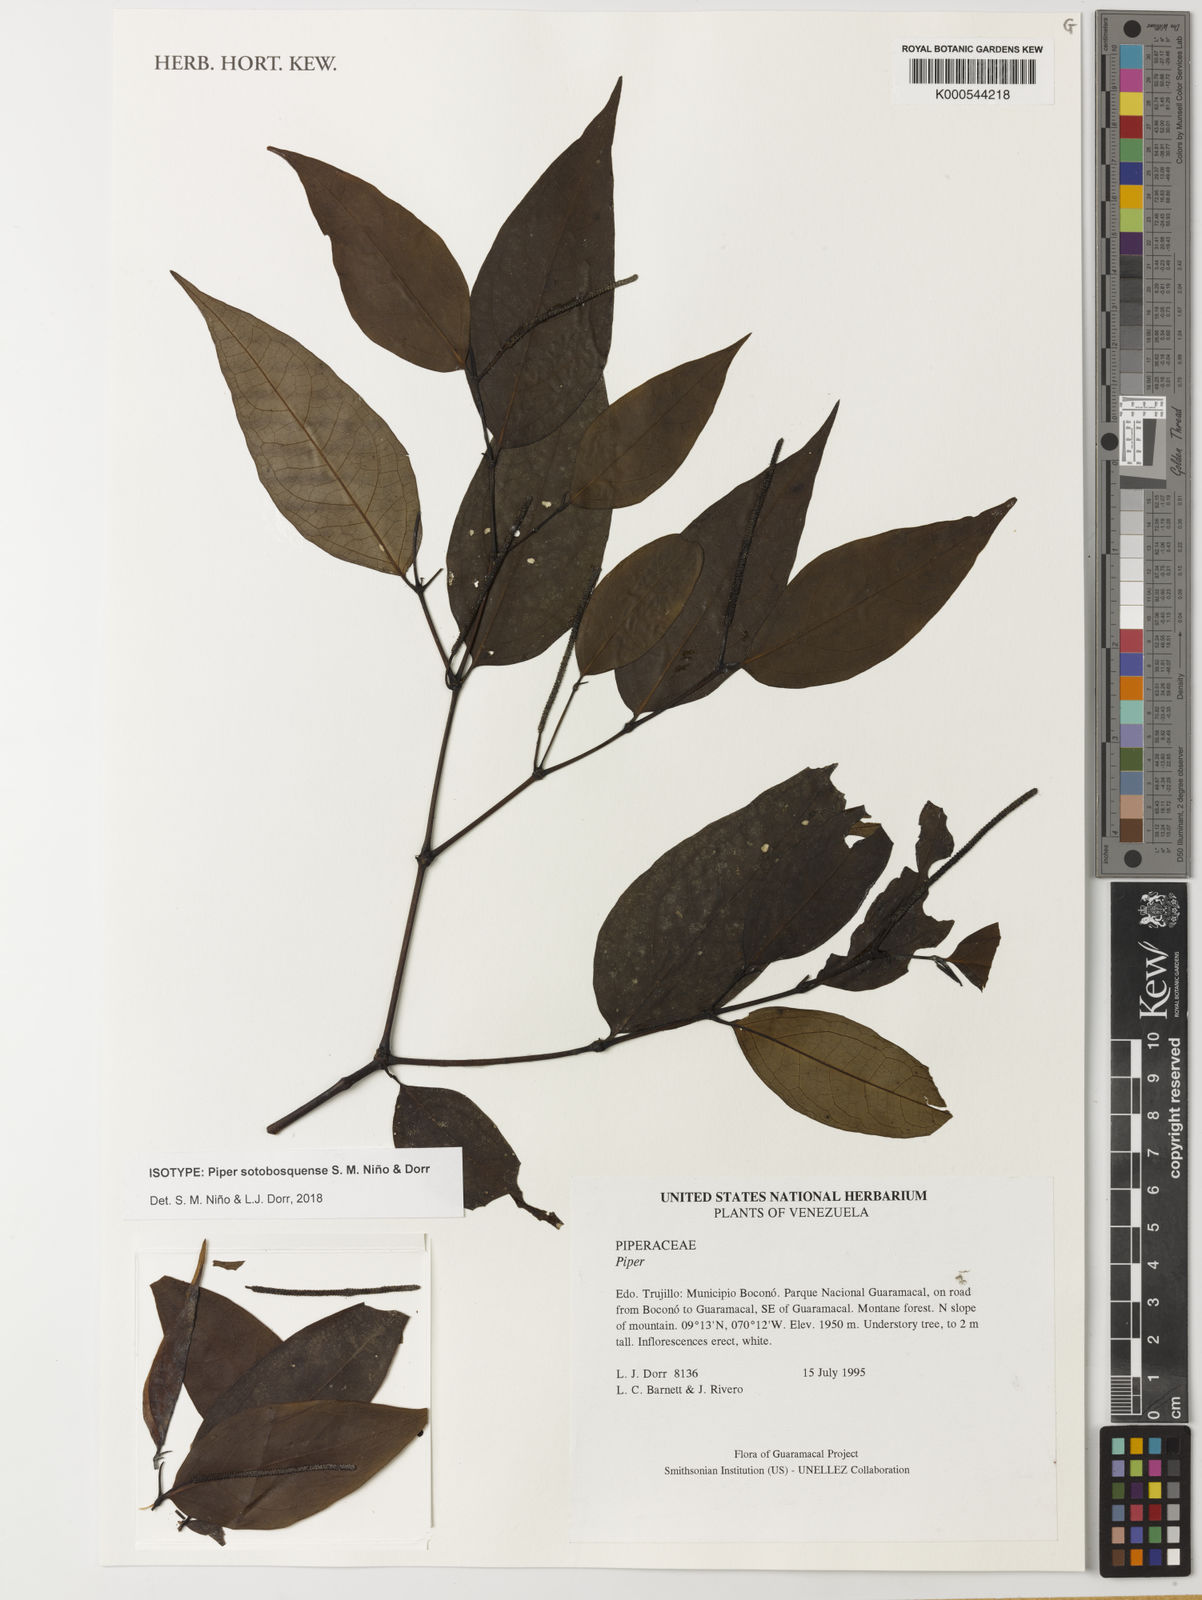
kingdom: Plantae
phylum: Tracheophyta
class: Magnoliopsida
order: Piperales
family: Piperaceae
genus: Piper
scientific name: Piper
